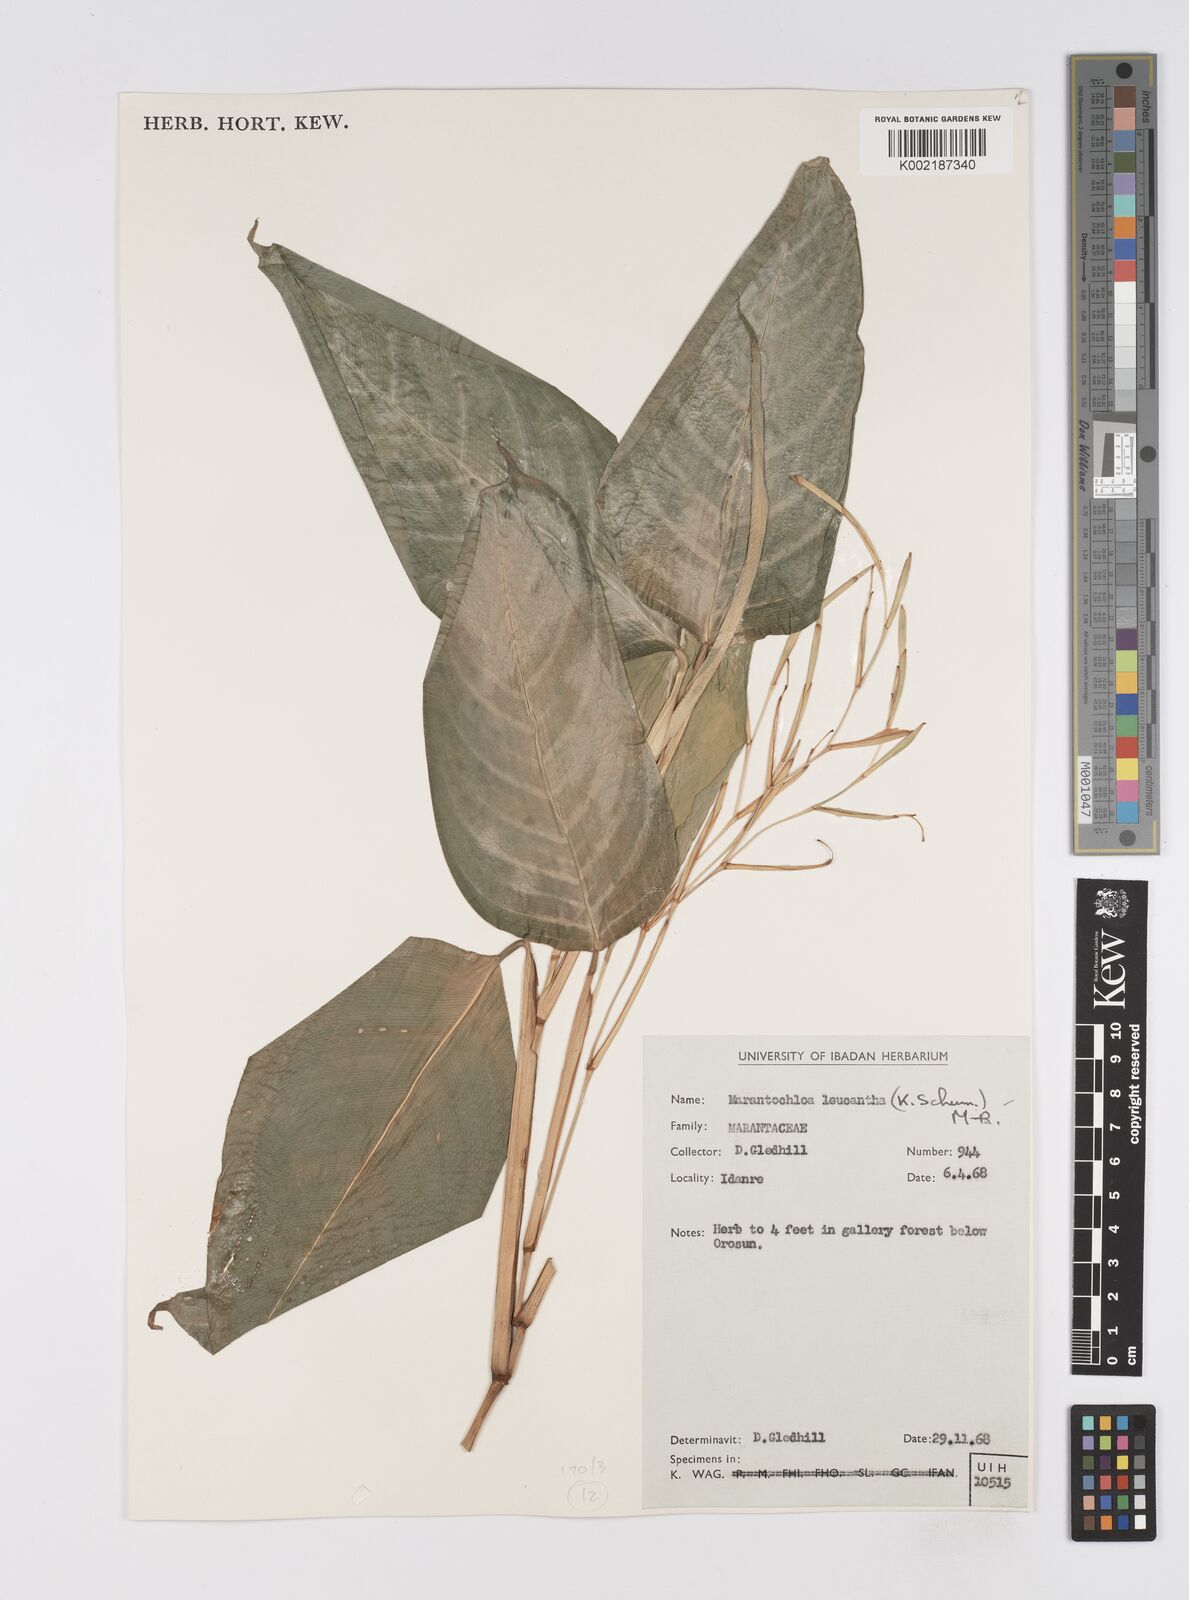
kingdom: Plantae
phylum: Tracheophyta
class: Liliopsida
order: Zingiberales
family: Marantaceae
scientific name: Marantaceae
